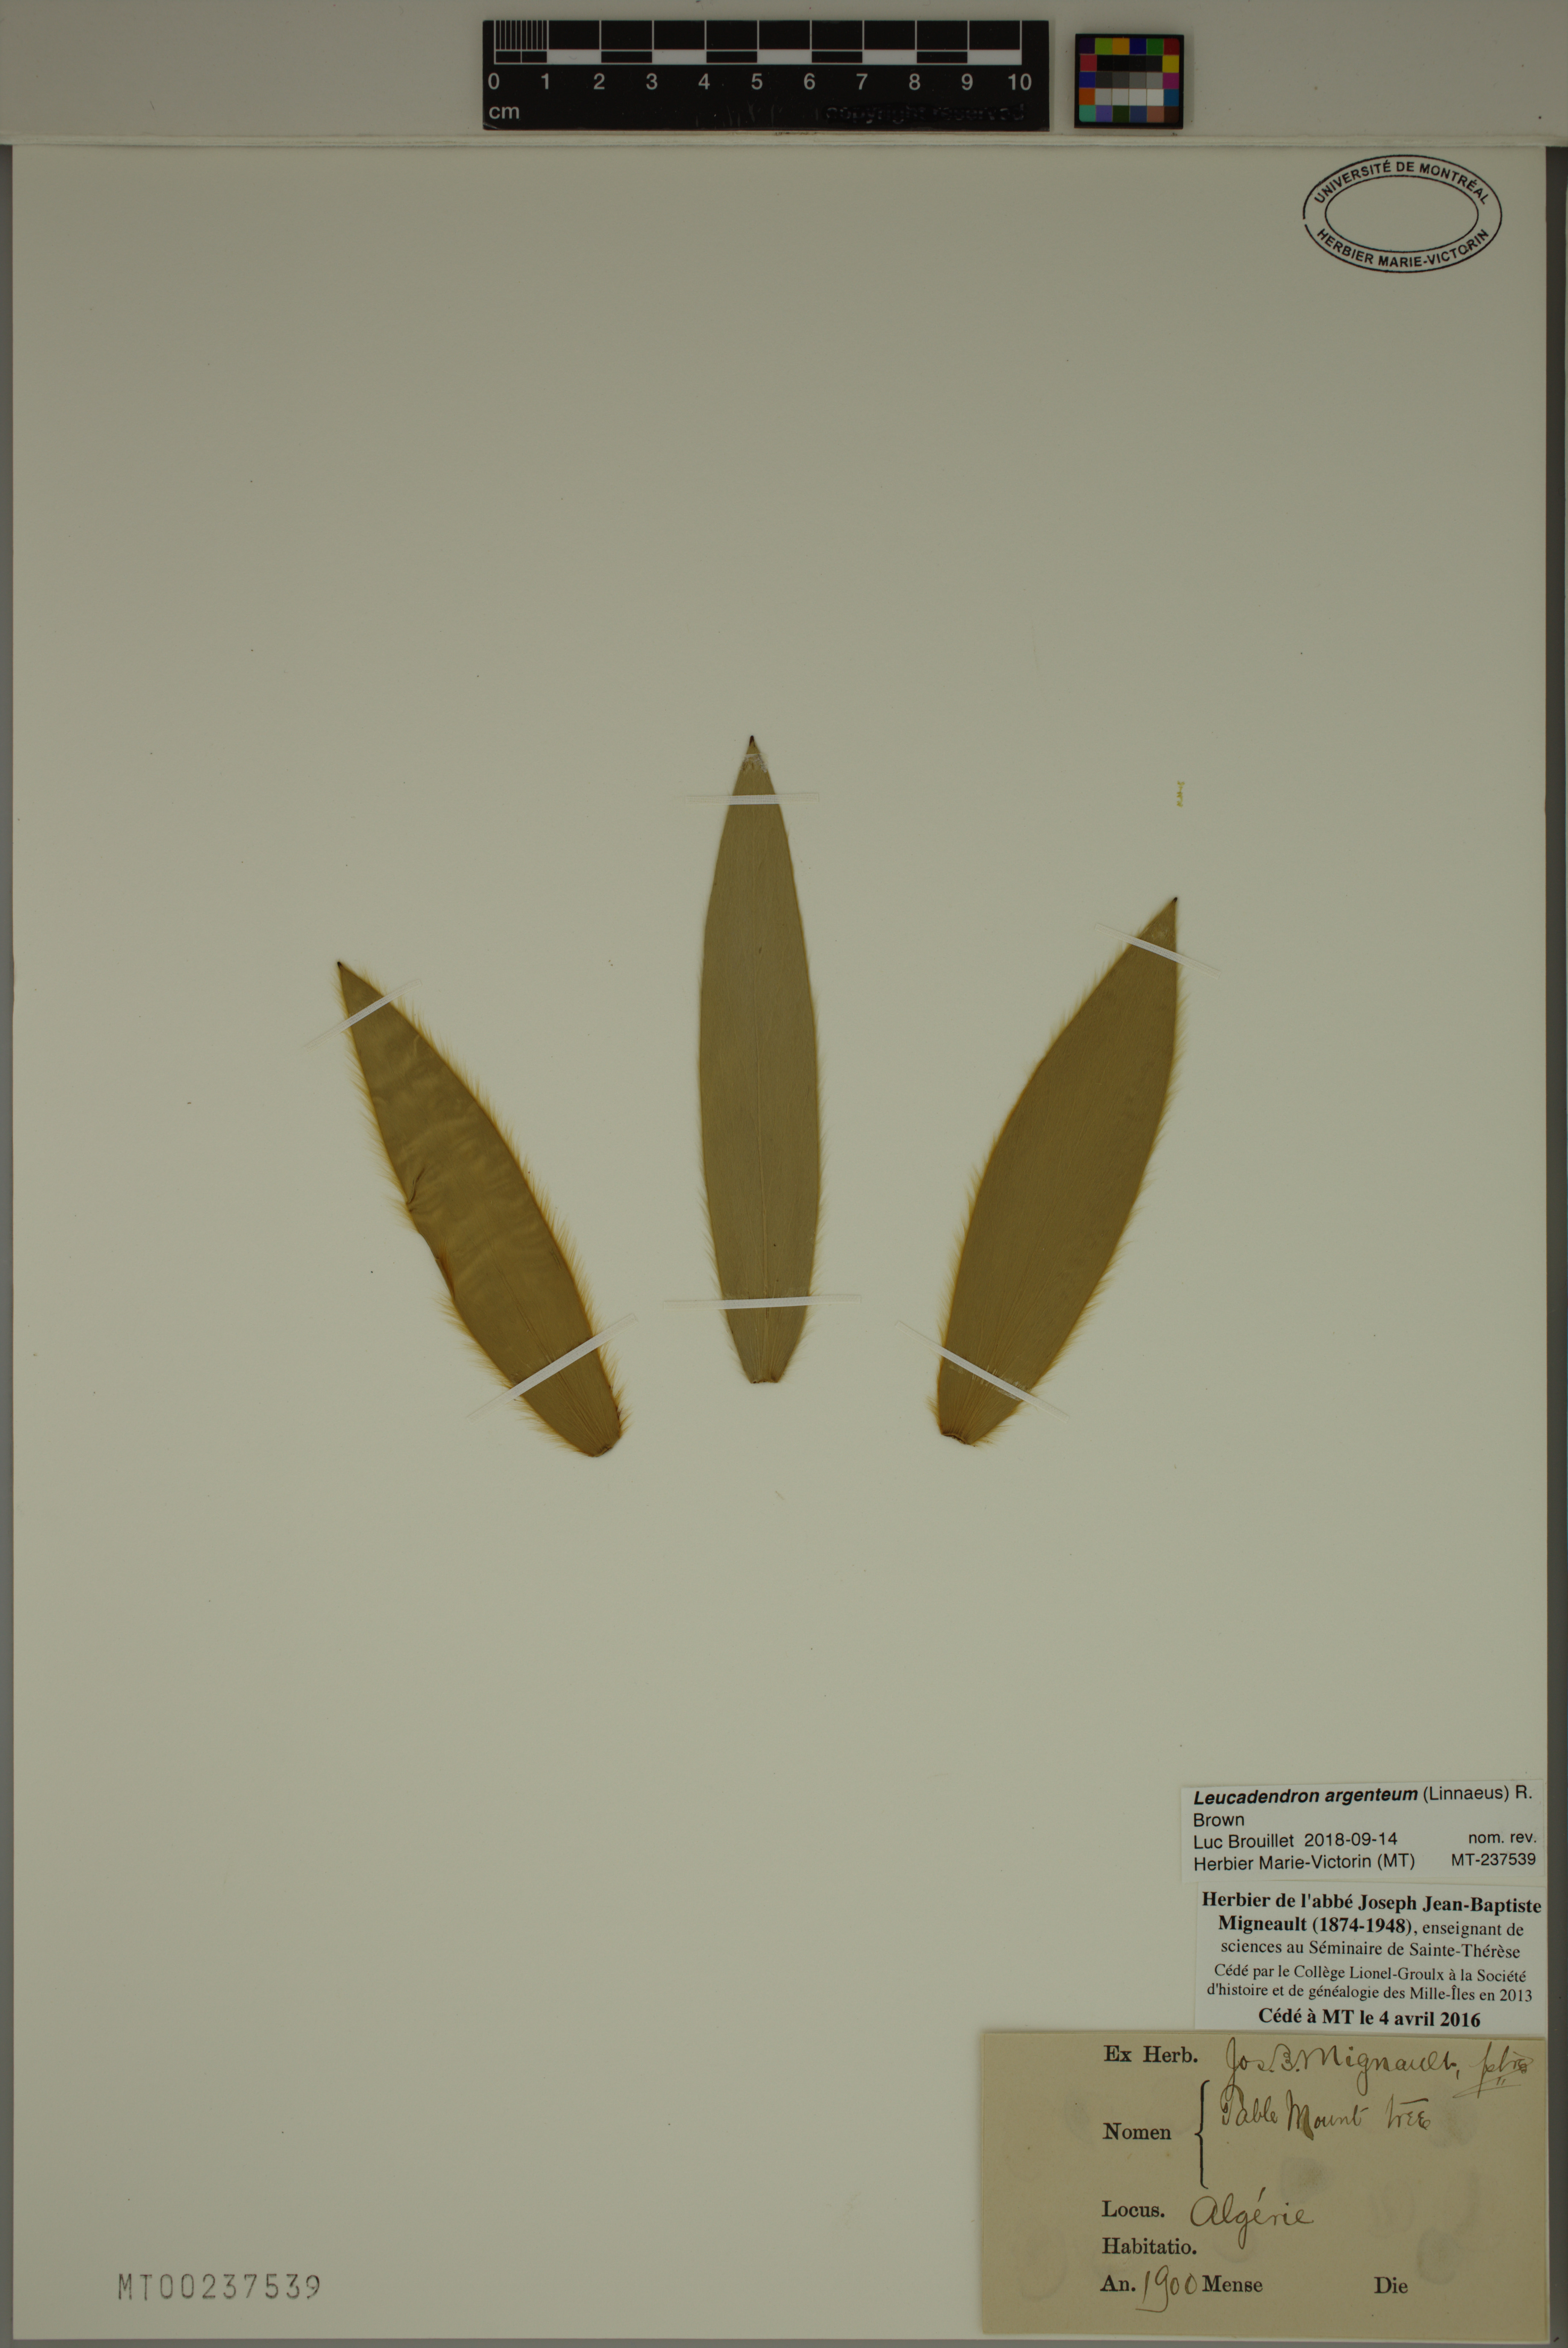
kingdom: Plantae
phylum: Tracheophyta
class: Magnoliopsida
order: Proteales
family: Proteaceae
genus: Leucadendron
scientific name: Leucadendron argenteum
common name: Cape silver tree
